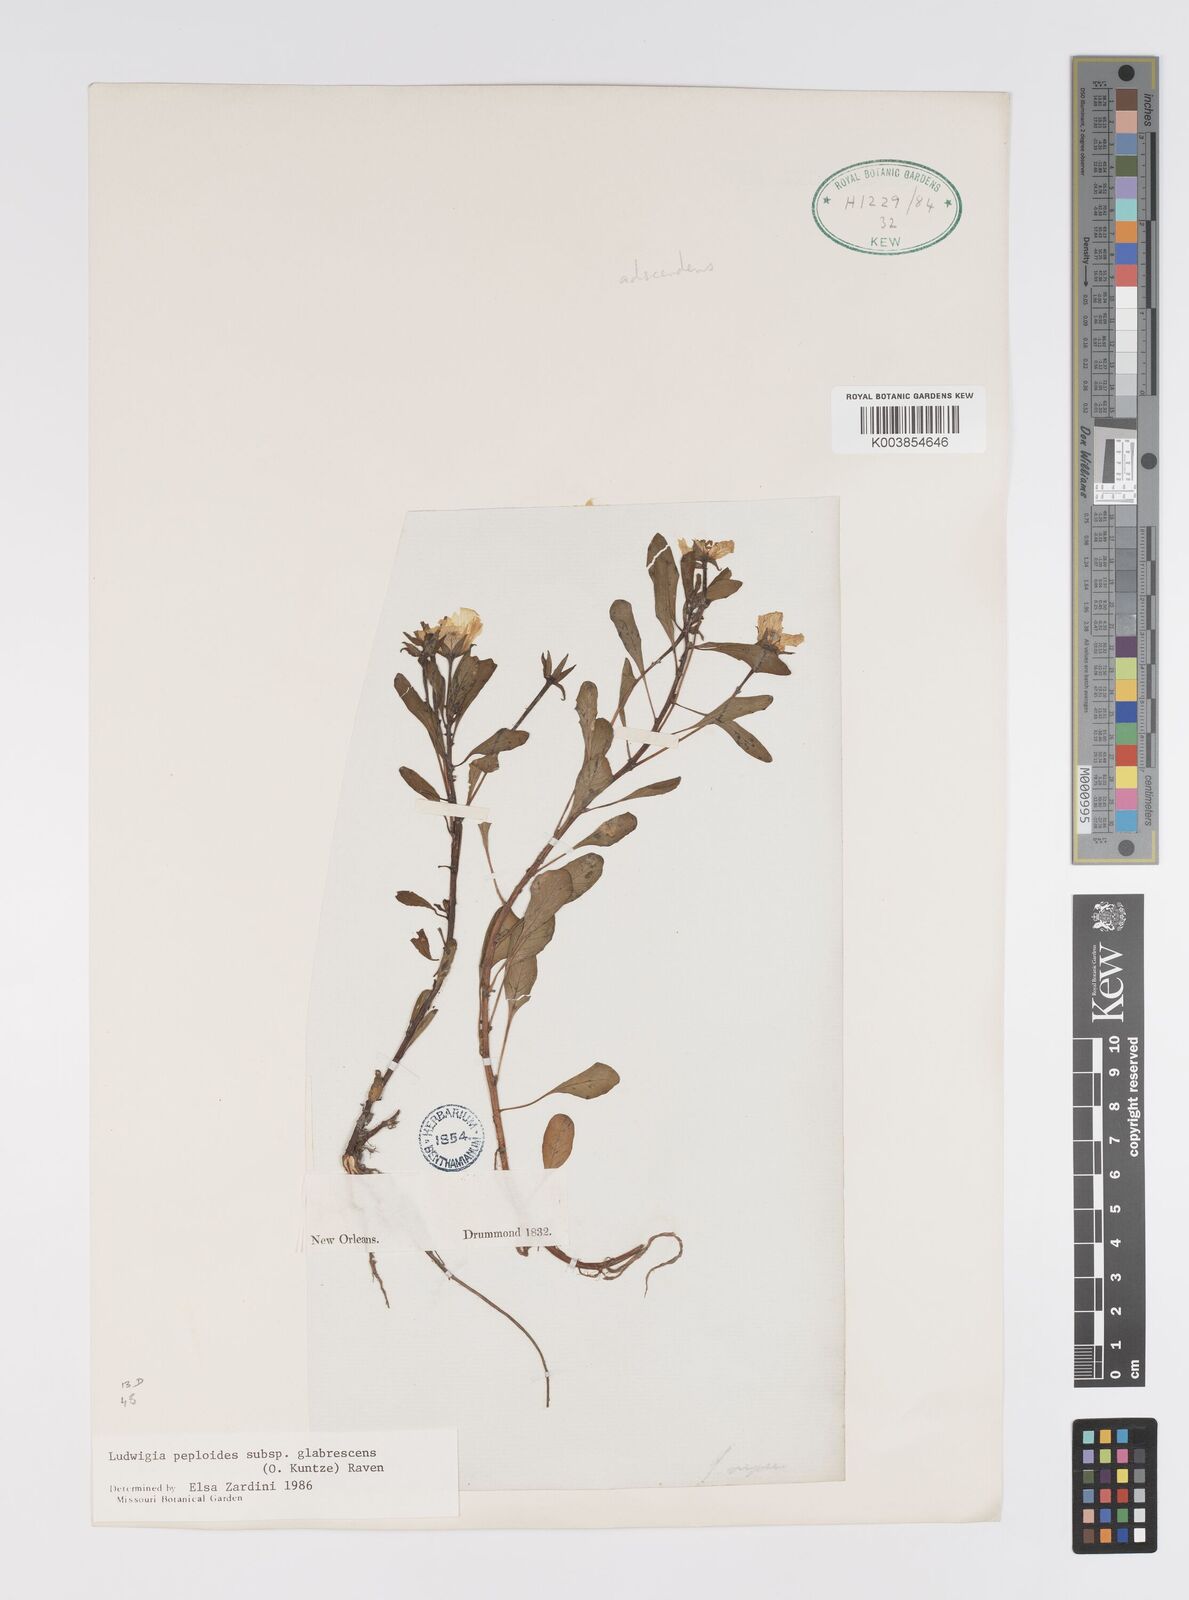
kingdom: Plantae
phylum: Tracheophyta
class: Magnoliopsida
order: Myrtales
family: Onagraceae
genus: Ludwigia
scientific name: Ludwigia peploides
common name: Floating primrose-willow
